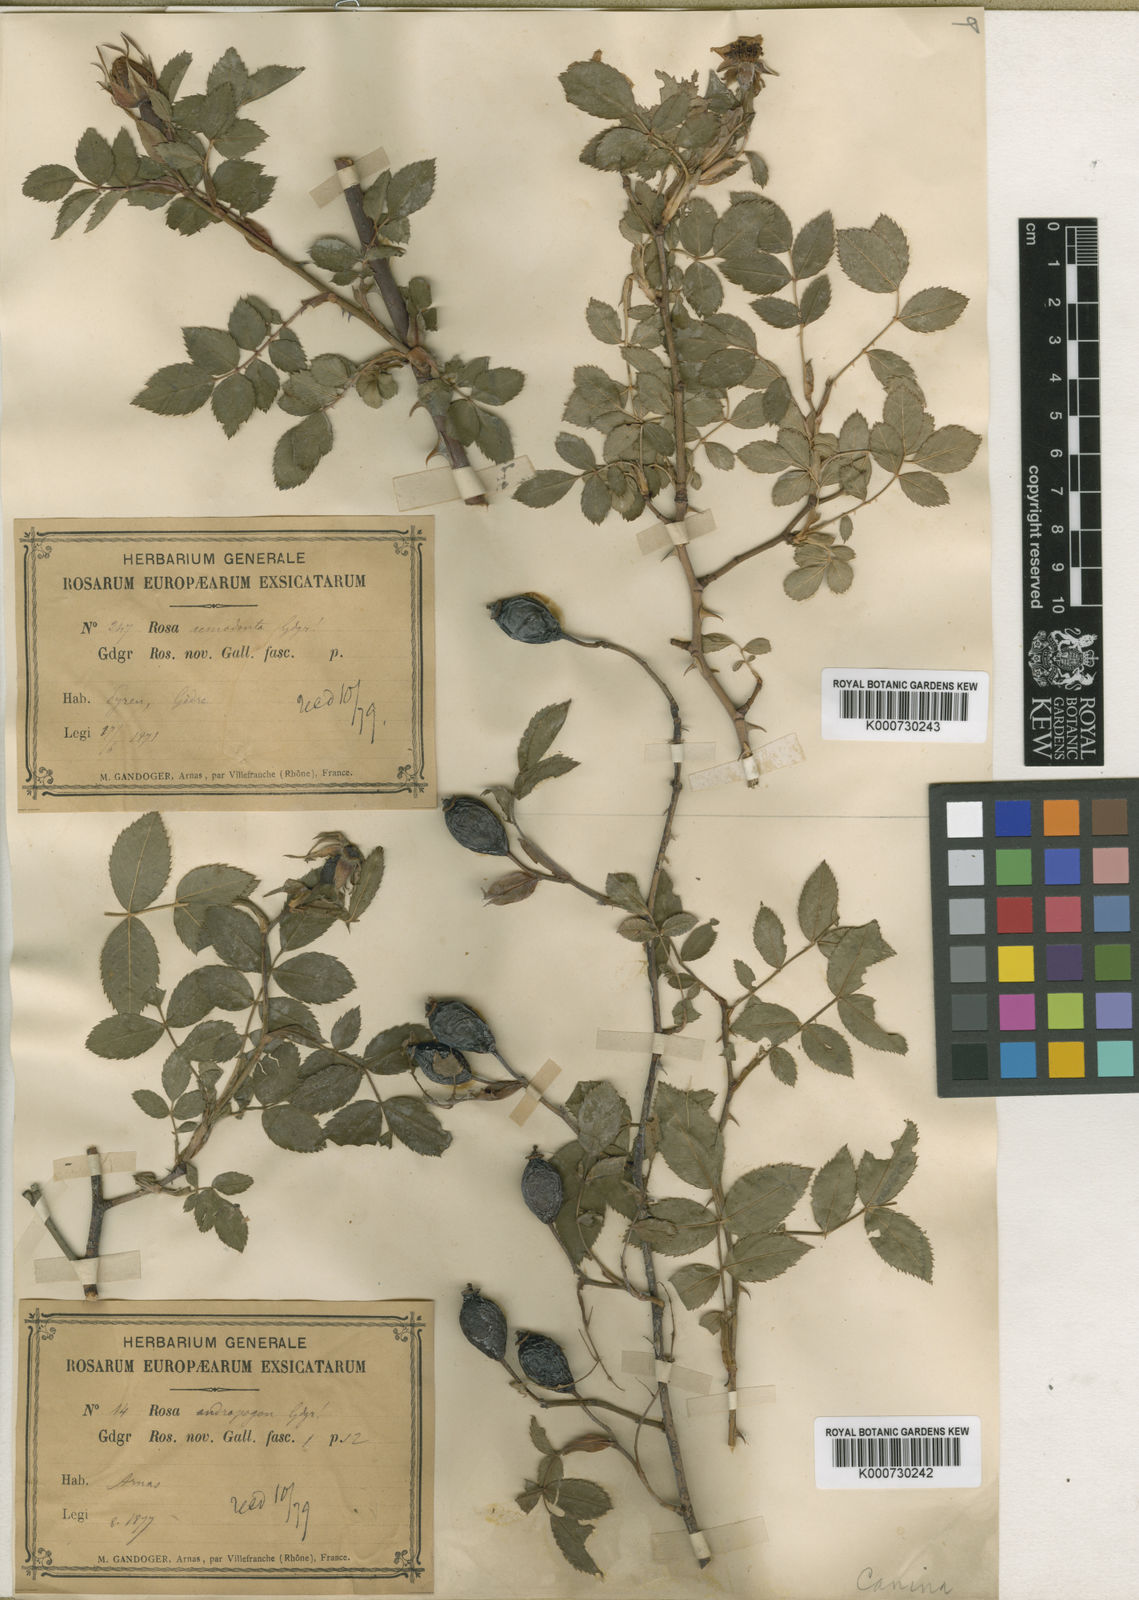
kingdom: Plantae
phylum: Tracheophyta
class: Magnoliopsida
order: Rosales
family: Rosaceae
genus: Rosa
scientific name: Rosa canina
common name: Dog rose
